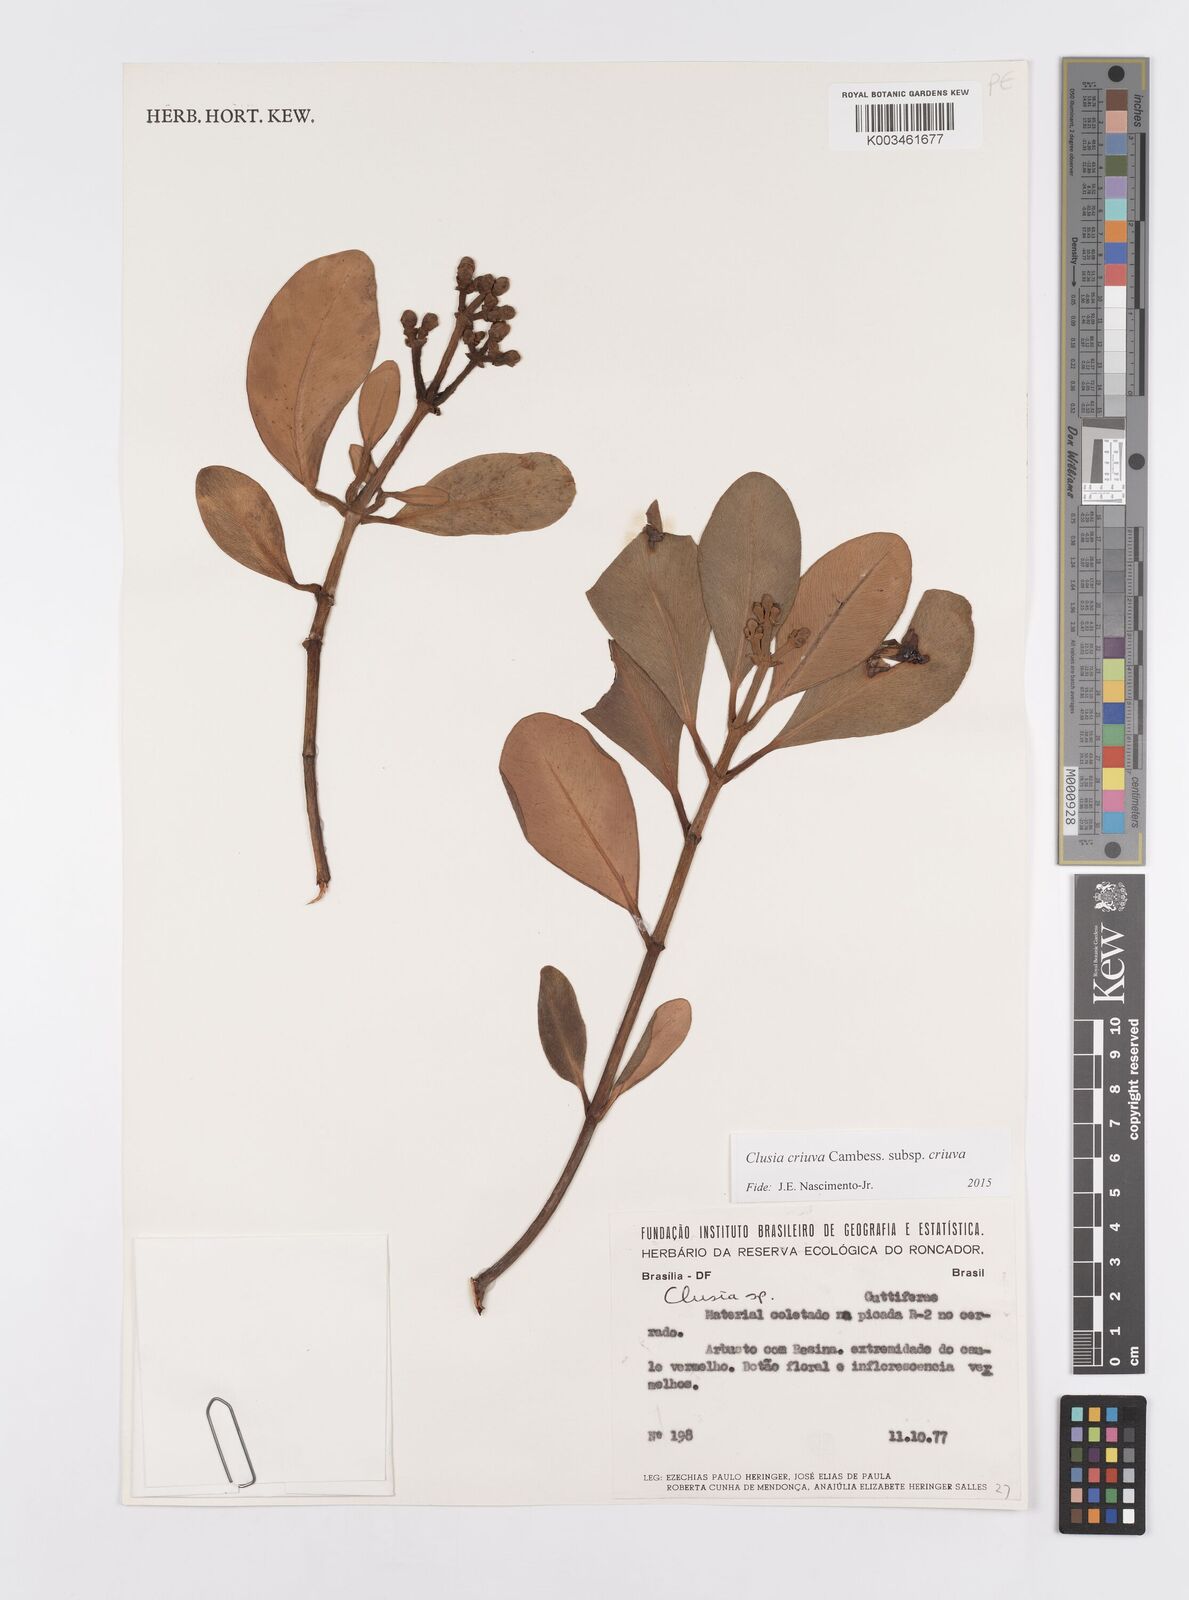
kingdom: Plantae
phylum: Tracheophyta
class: Magnoliopsida
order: Malpighiales
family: Clusiaceae
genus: Clusia
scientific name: Clusia criuva
